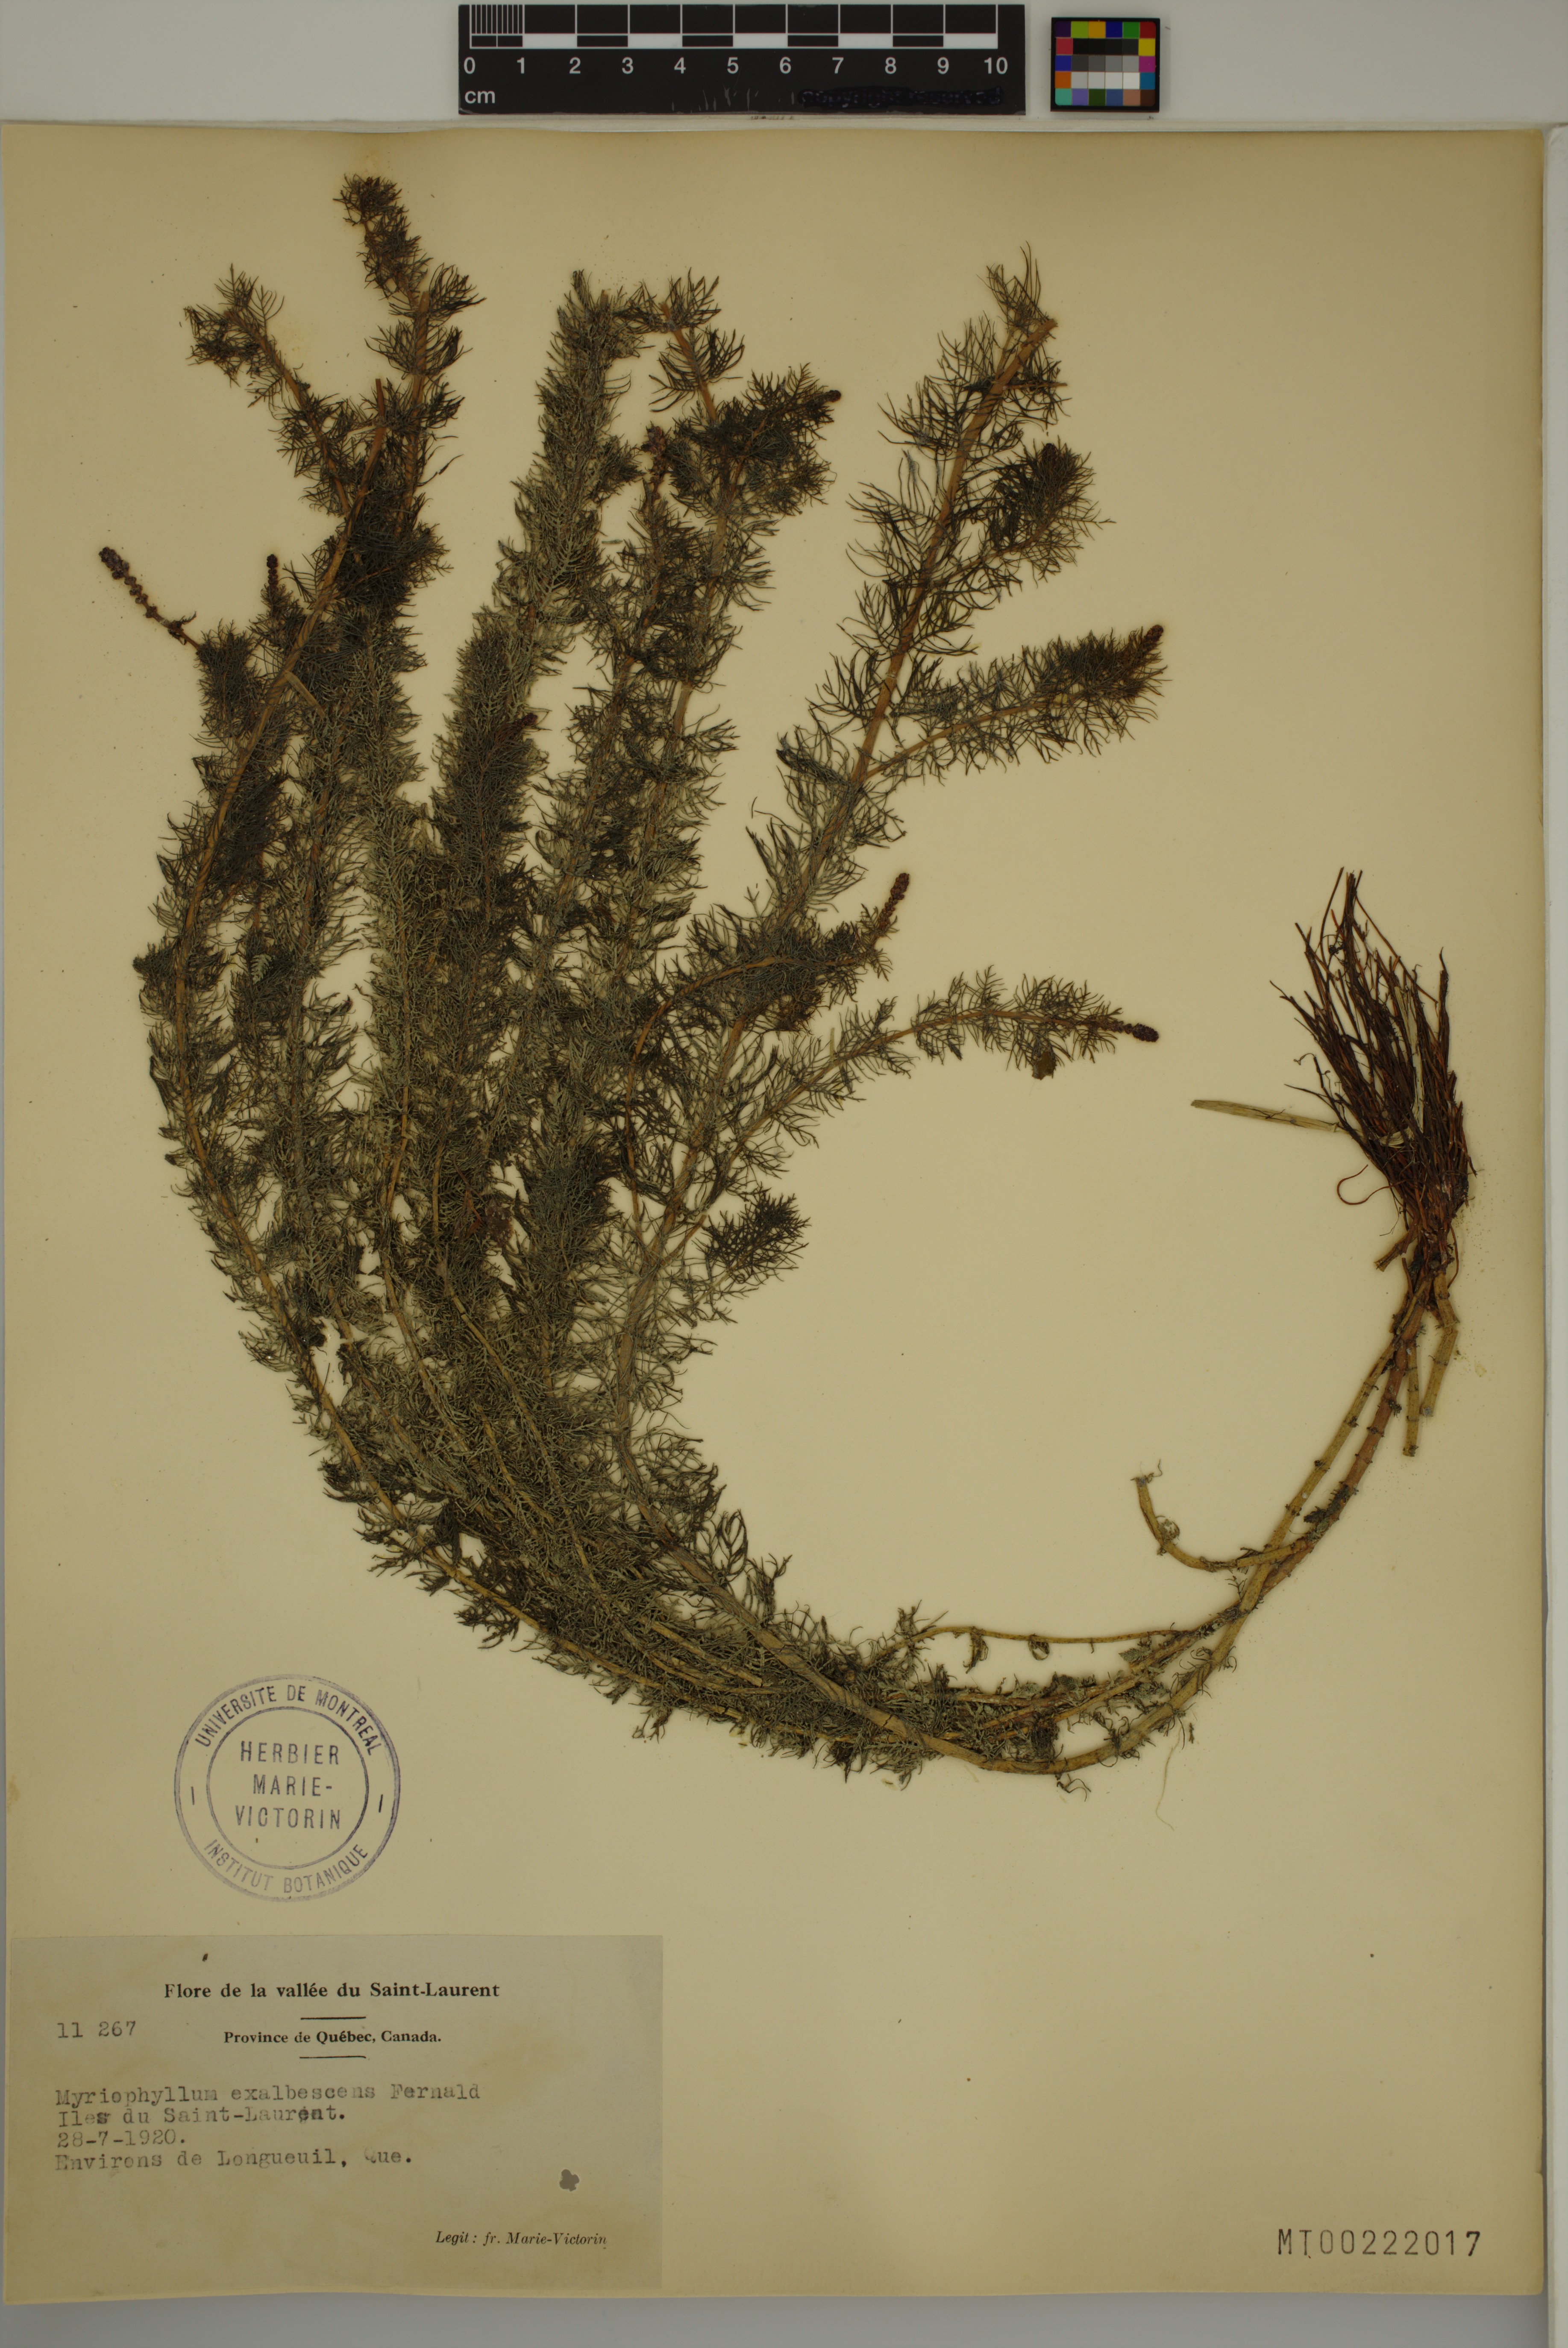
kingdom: Plantae
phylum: Tracheophyta
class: Magnoliopsida
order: Saxifragales
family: Haloragaceae
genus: Myriophyllum
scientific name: Myriophyllum sibiricum
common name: Siberian water-milfoil
